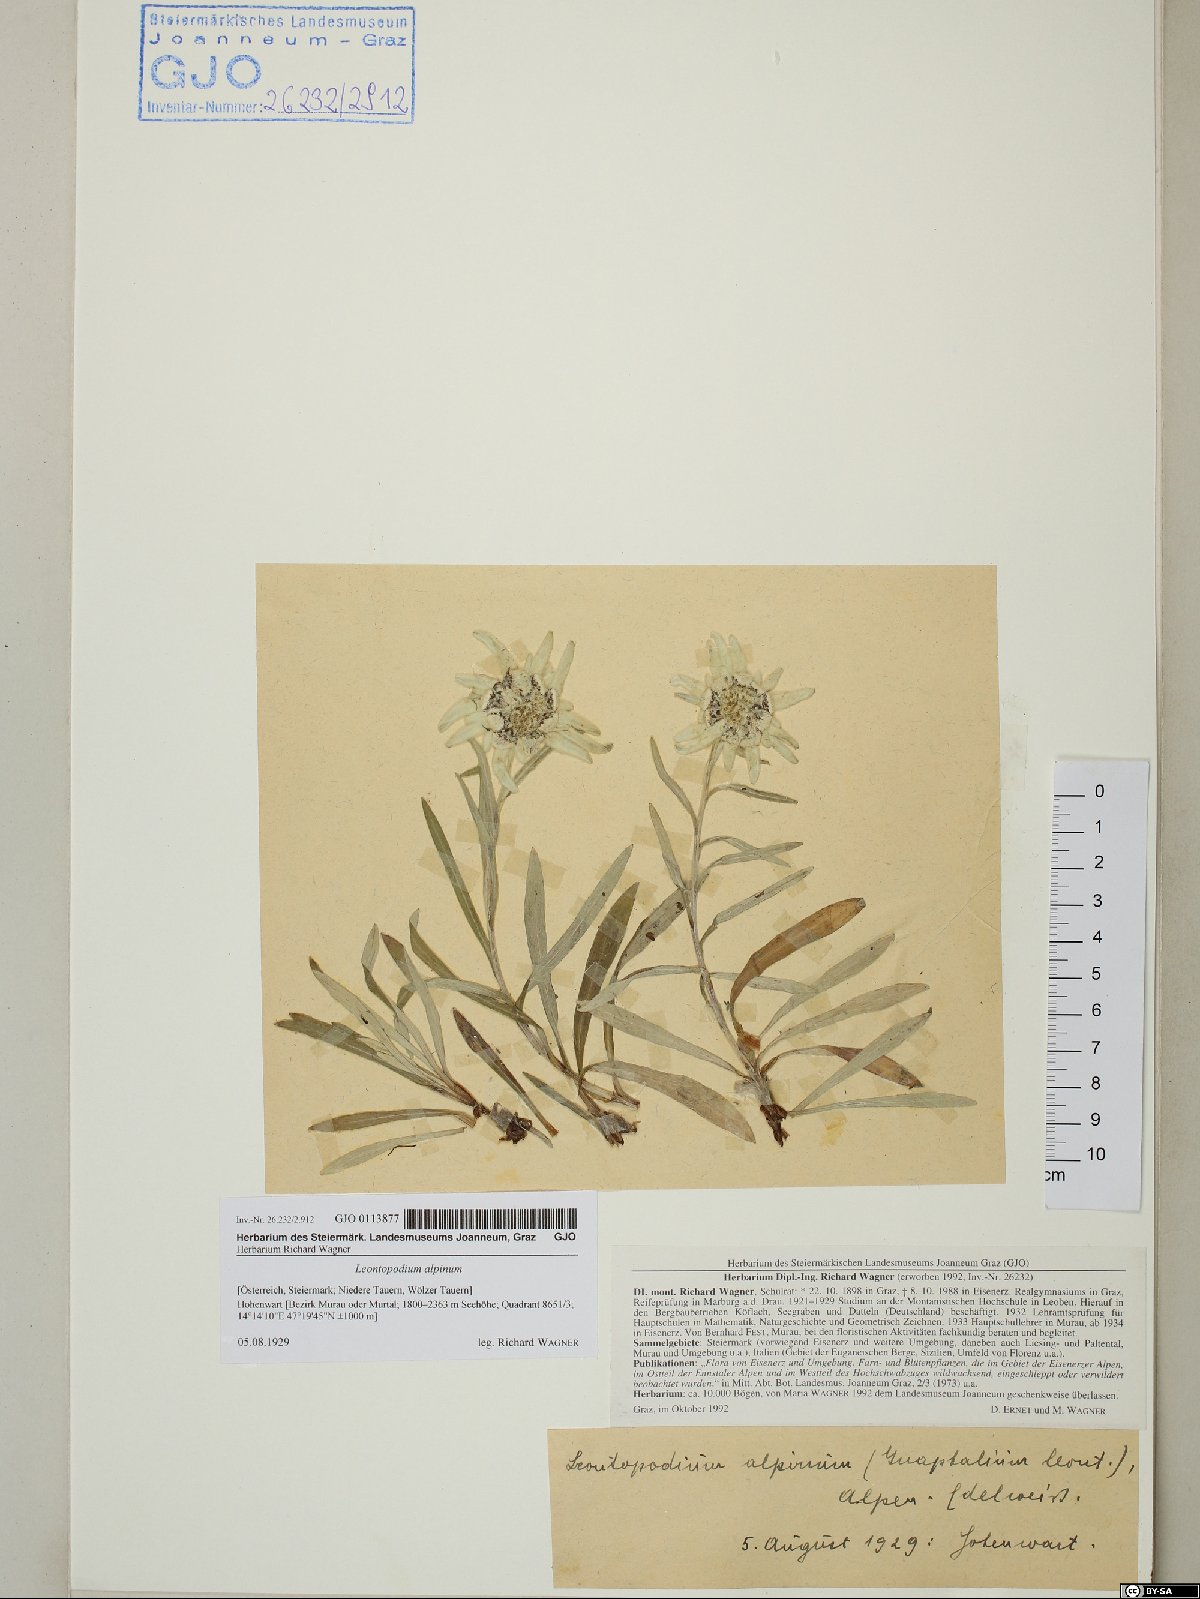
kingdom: Plantae
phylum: Tracheophyta
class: Magnoliopsida
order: Asterales
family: Asteraceae
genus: Leontopodium
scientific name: Leontopodium nivale
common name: Edelweiss
